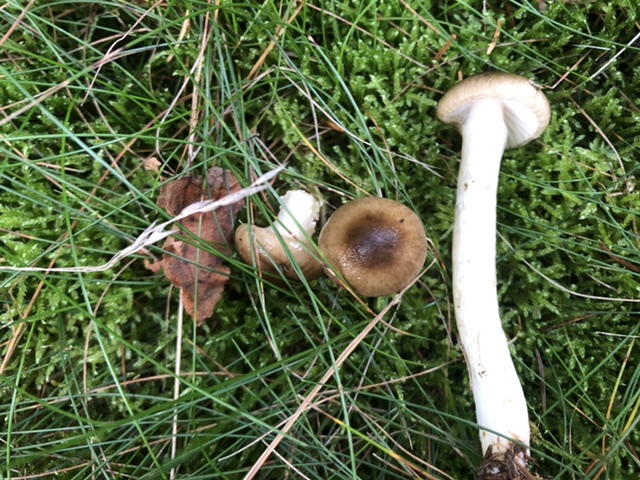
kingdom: Fungi
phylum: Basidiomycota
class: Agaricomycetes
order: Agaricales
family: Hygrophoraceae
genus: Hygrophorus
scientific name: Hygrophorus olivaceoalbus
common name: hvidbrun sneglehat
